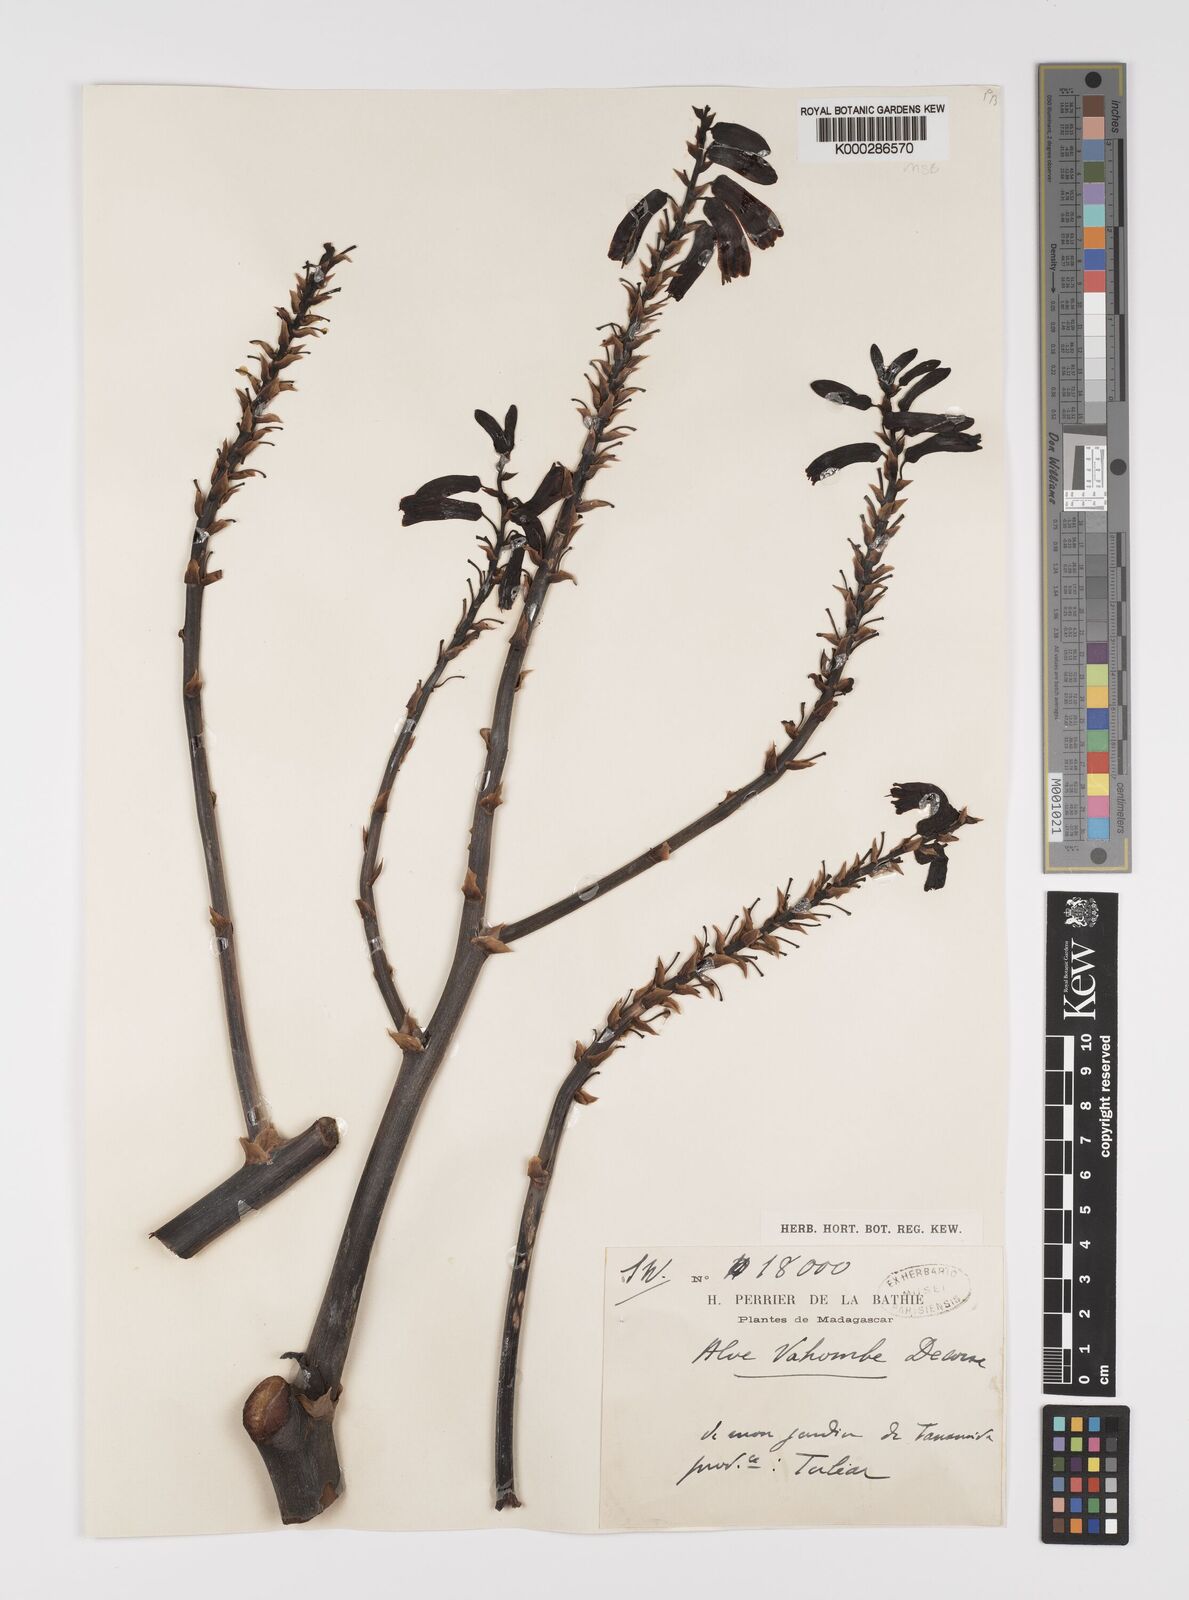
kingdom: Plantae
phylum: Tracheophyta
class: Liliopsida
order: Asparagales
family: Asphodelaceae
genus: Aloe
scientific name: Aloe vaombe
